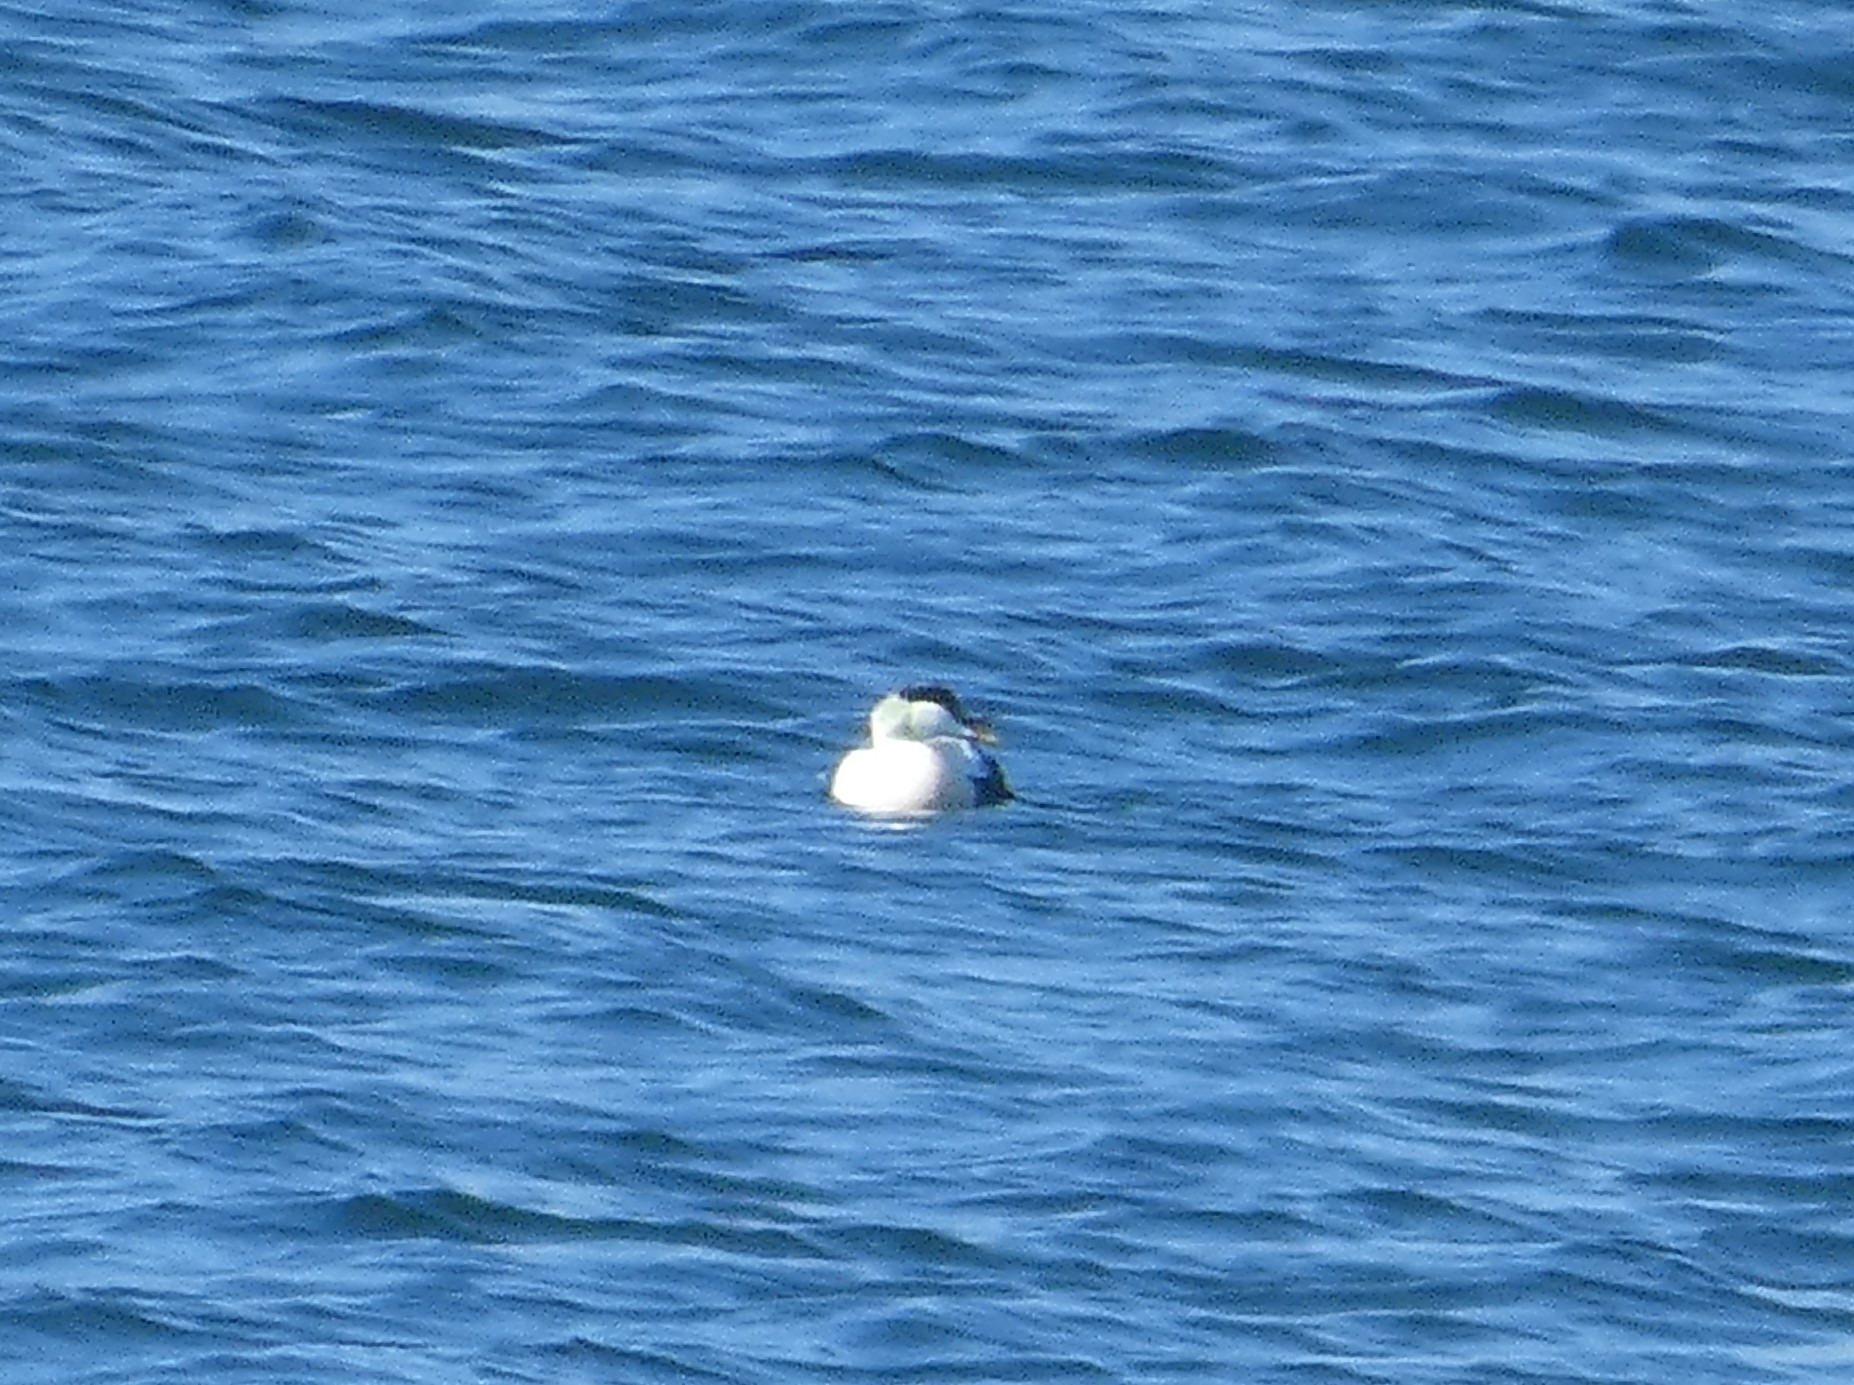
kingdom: Animalia
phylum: Chordata
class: Aves
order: Anseriformes
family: Anatidae
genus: Somateria
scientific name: Somateria mollissima
